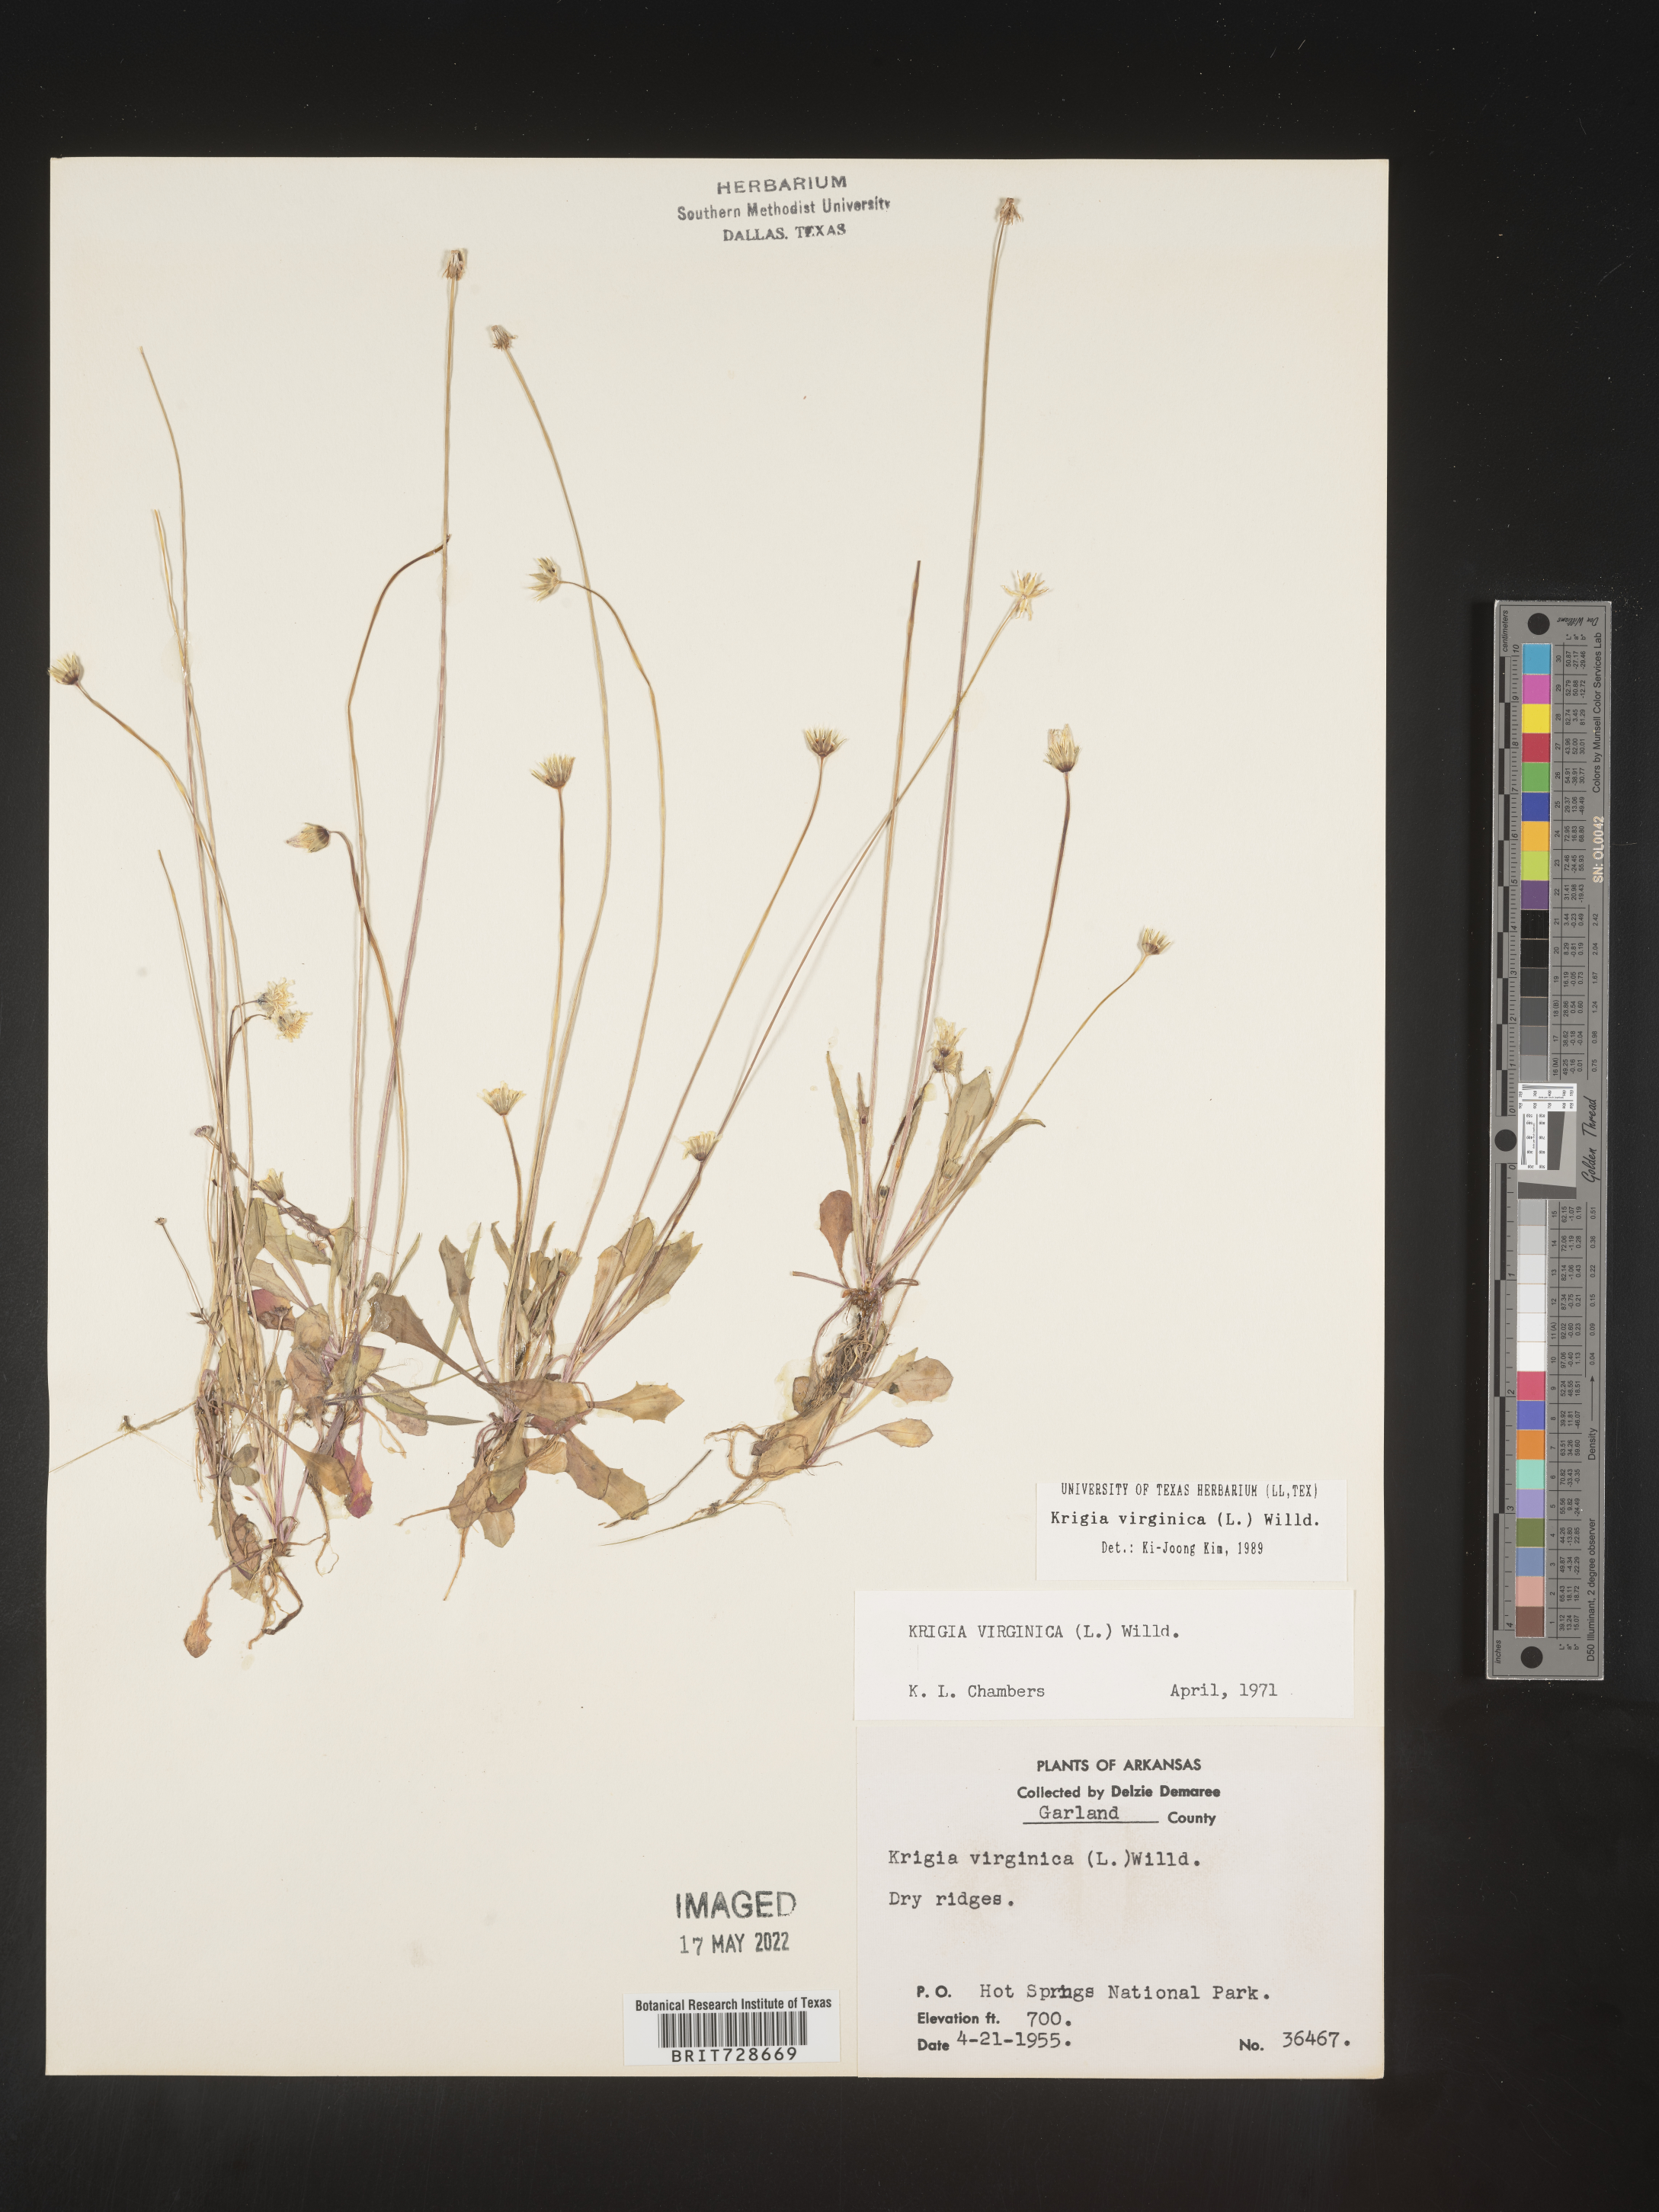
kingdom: Plantae
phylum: Tracheophyta
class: Magnoliopsida
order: Asterales
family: Asteraceae
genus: Krigia
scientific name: Krigia virginica
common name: Virginia dwarf-dandelion
